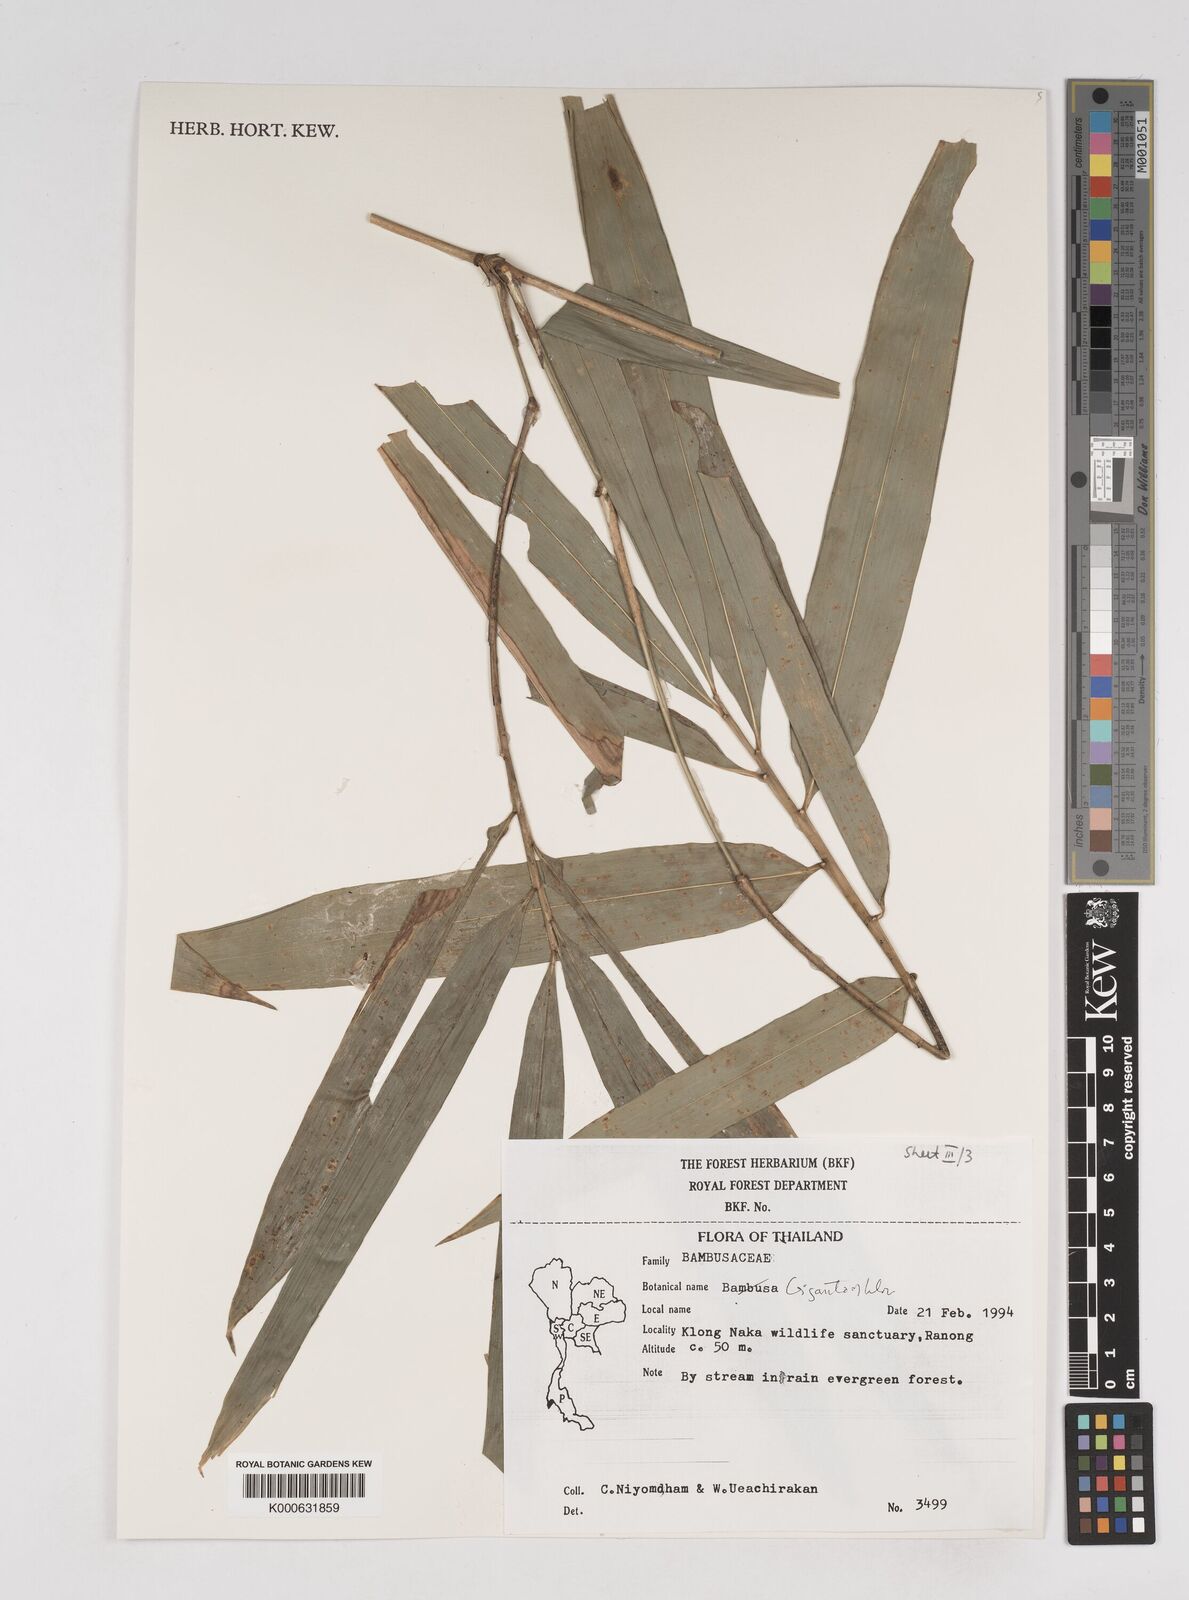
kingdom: Plantae
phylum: Tracheophyta
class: Liliopsida
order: Poales
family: Poaceae
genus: Gigantochloa
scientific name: Gigantochloa
